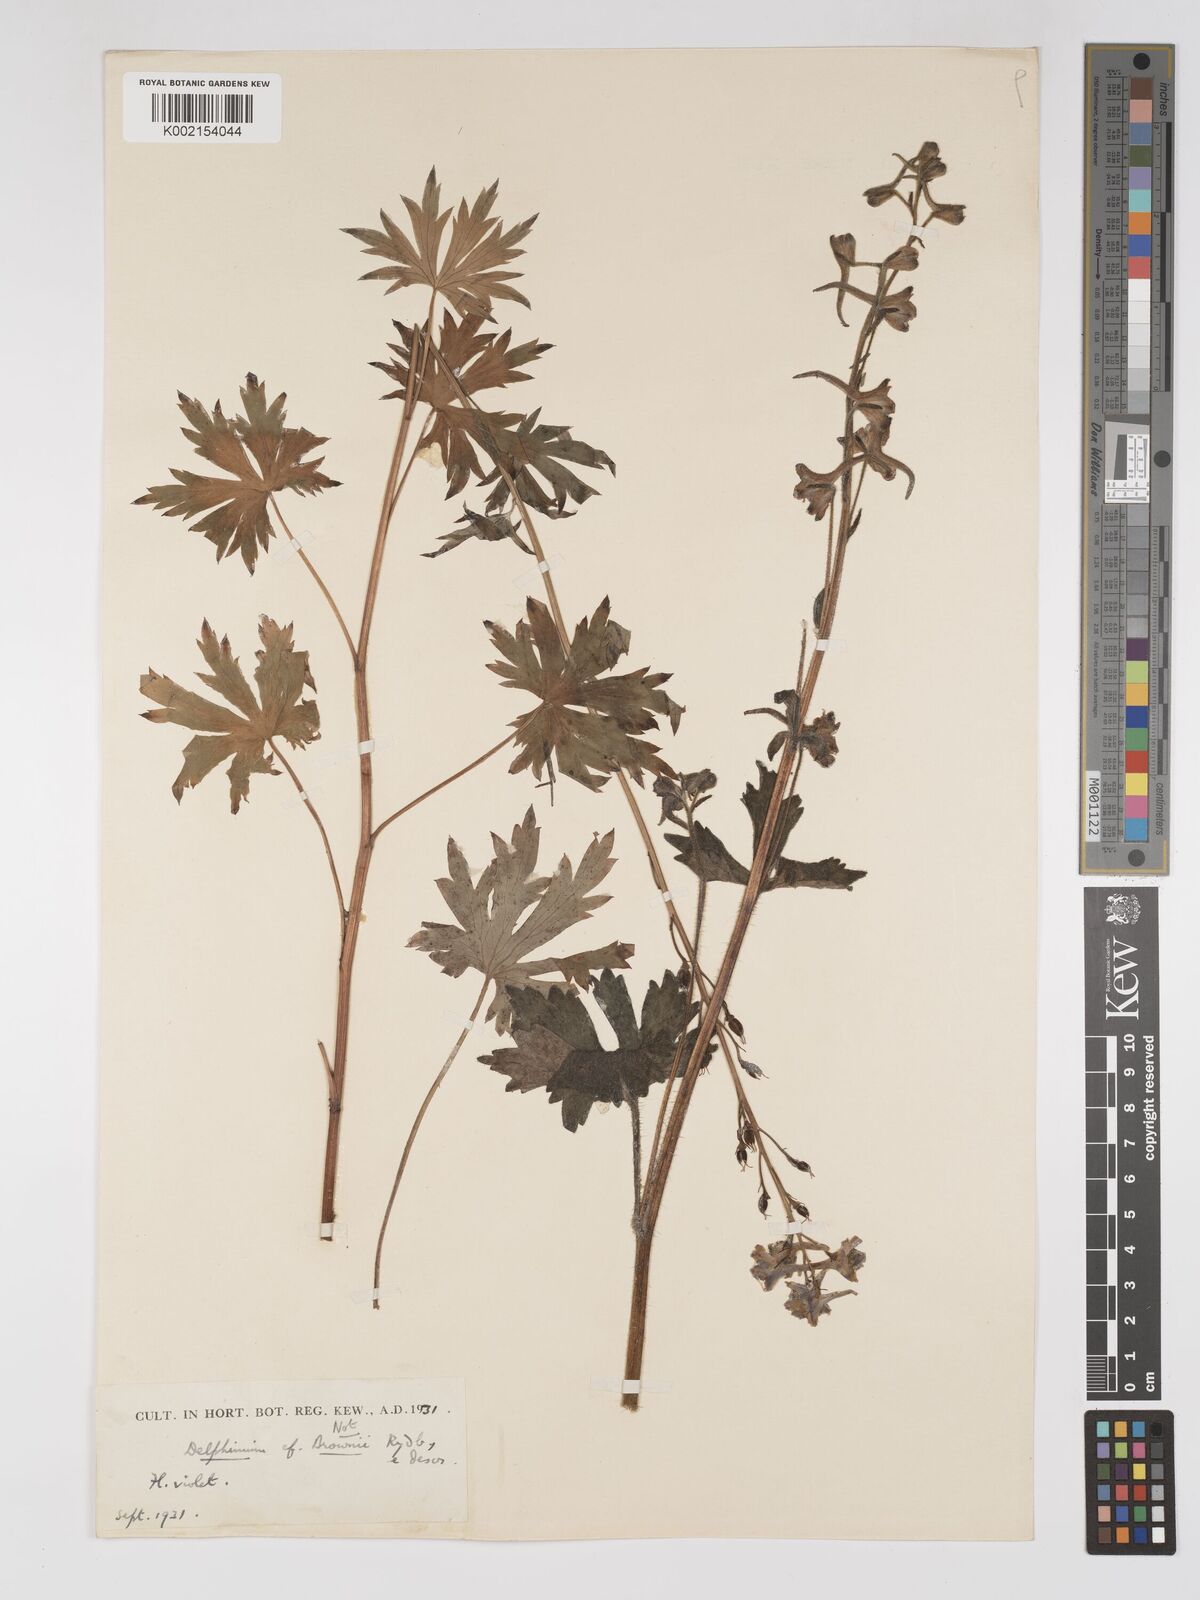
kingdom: Plantae
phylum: Tracheophyta
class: Magnoliopsida
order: Ranunculales
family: Ranunculaceae
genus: Delphinium
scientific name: Delphinium
